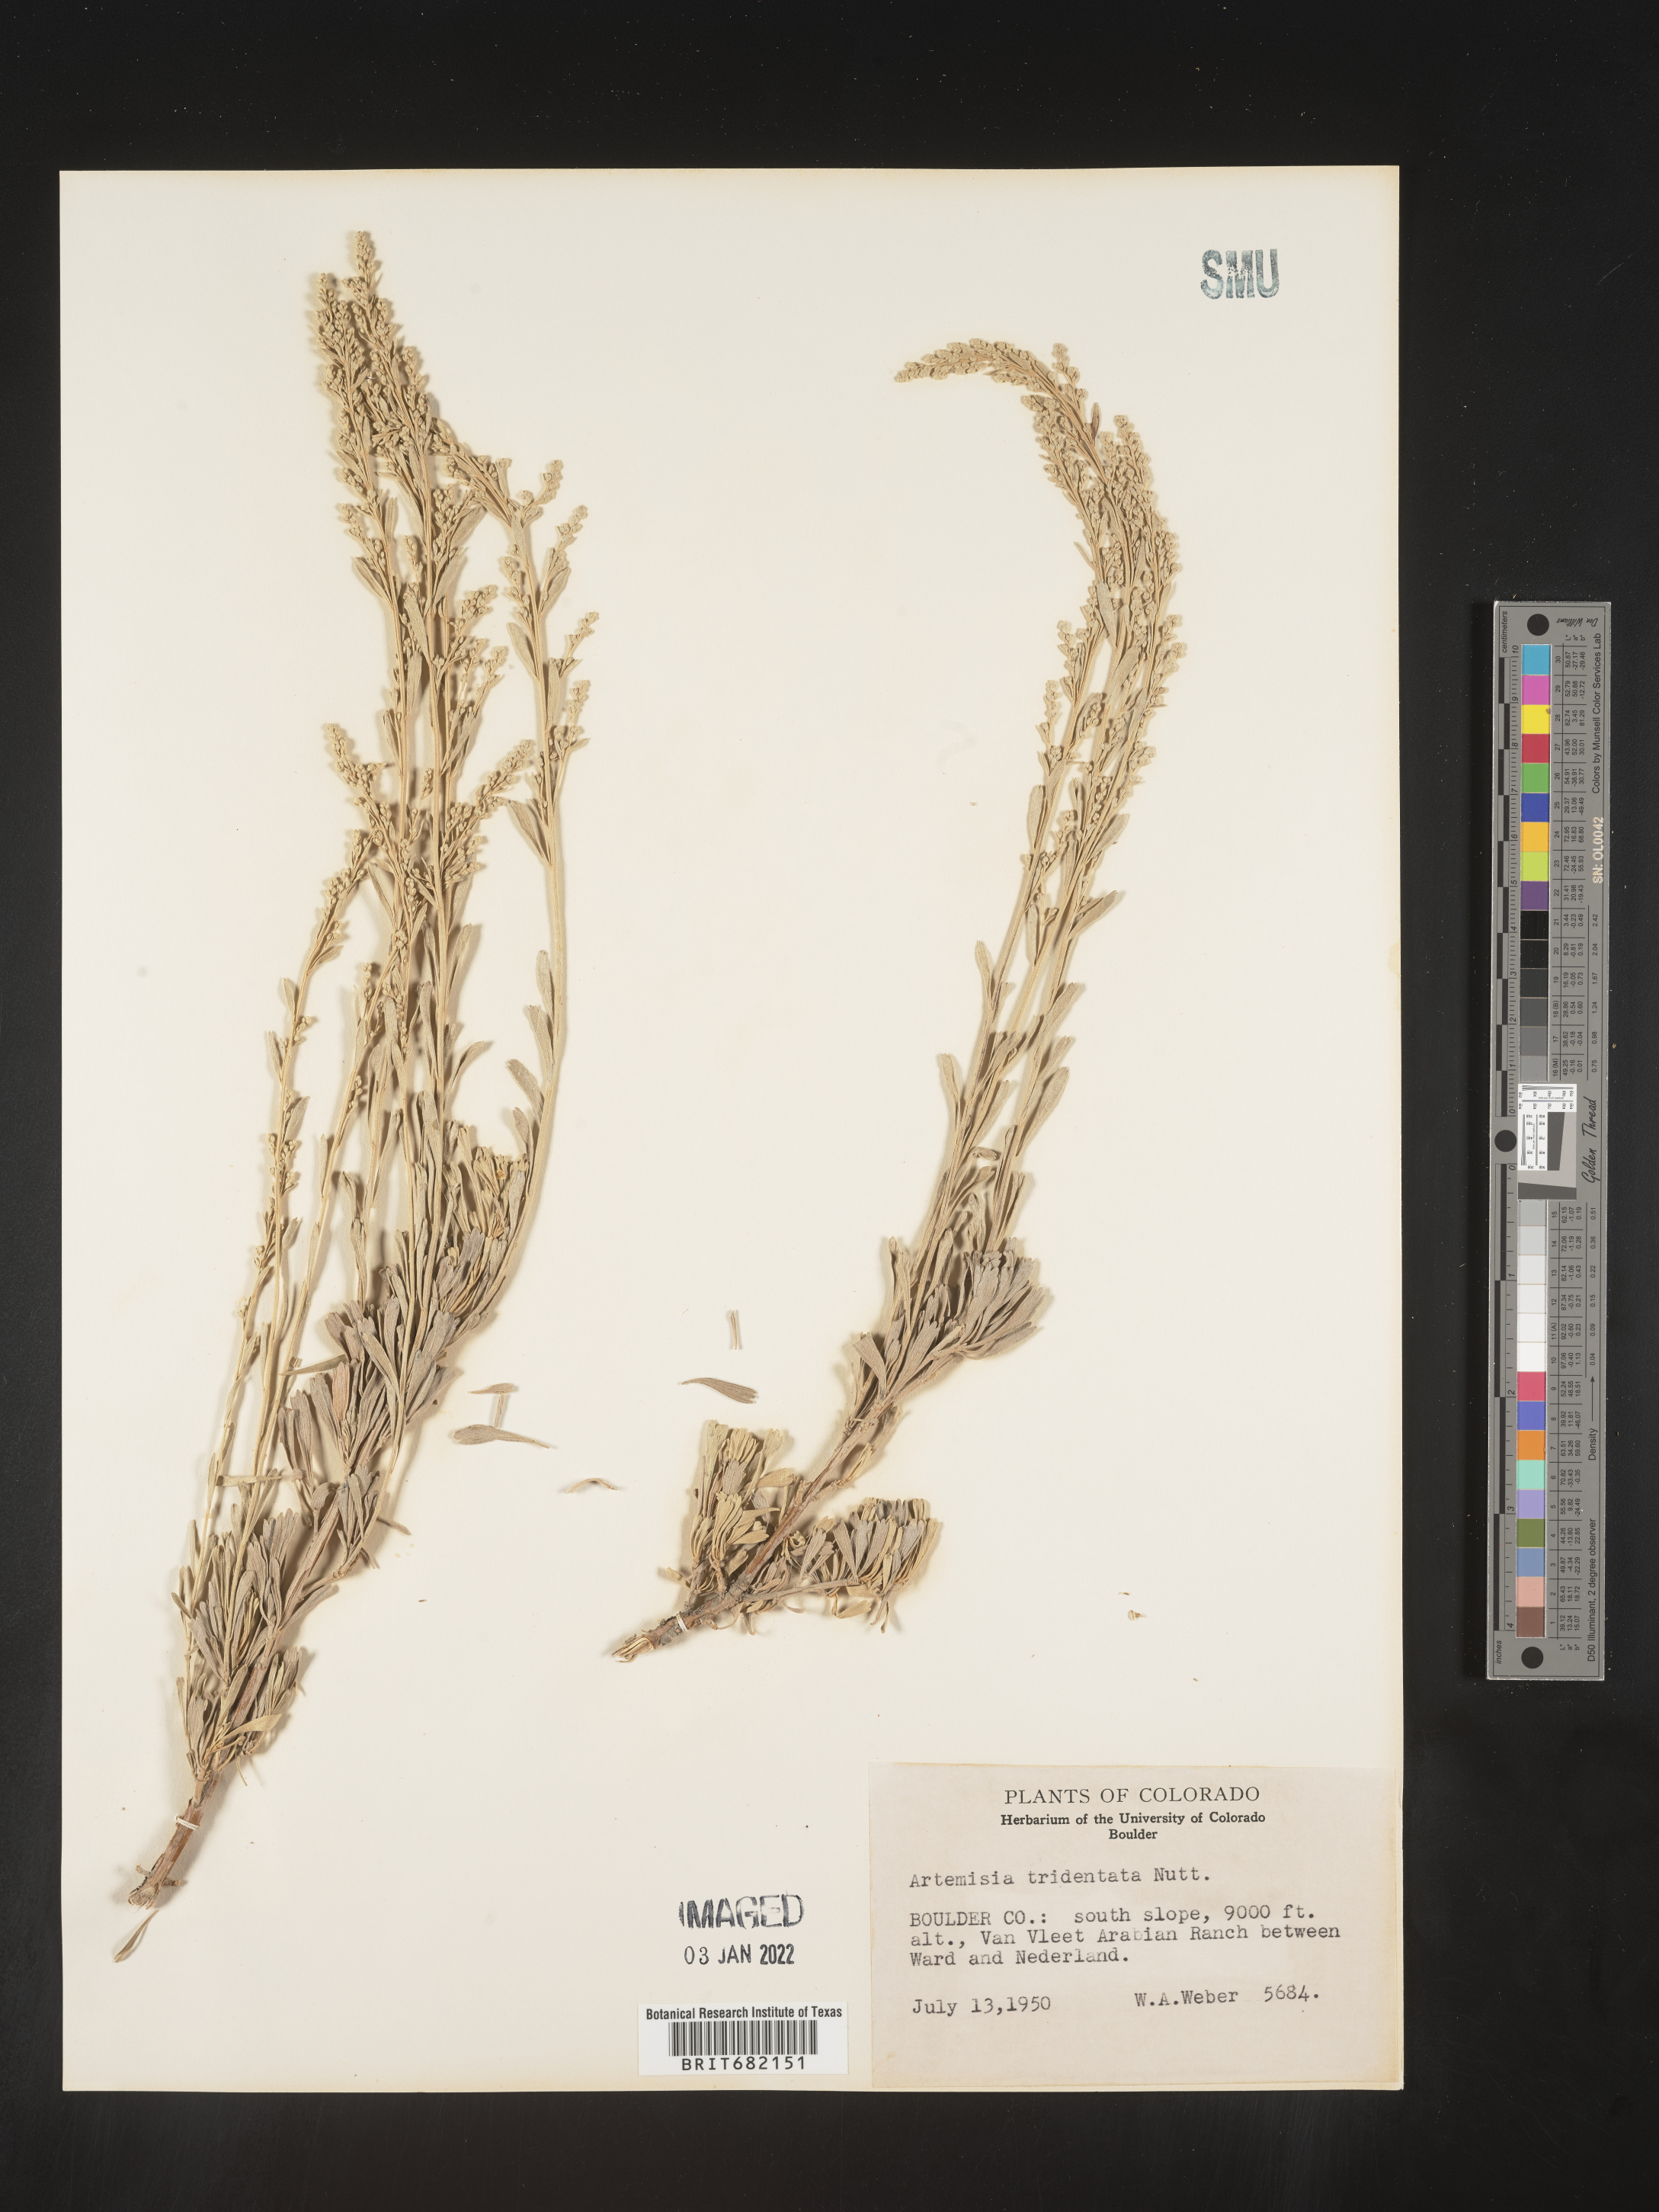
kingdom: Plantae
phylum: Tracheophyta
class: Magnoliopsida
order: Asterales
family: Asteraceae
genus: Artemisia
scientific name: Artemisia tridentata
